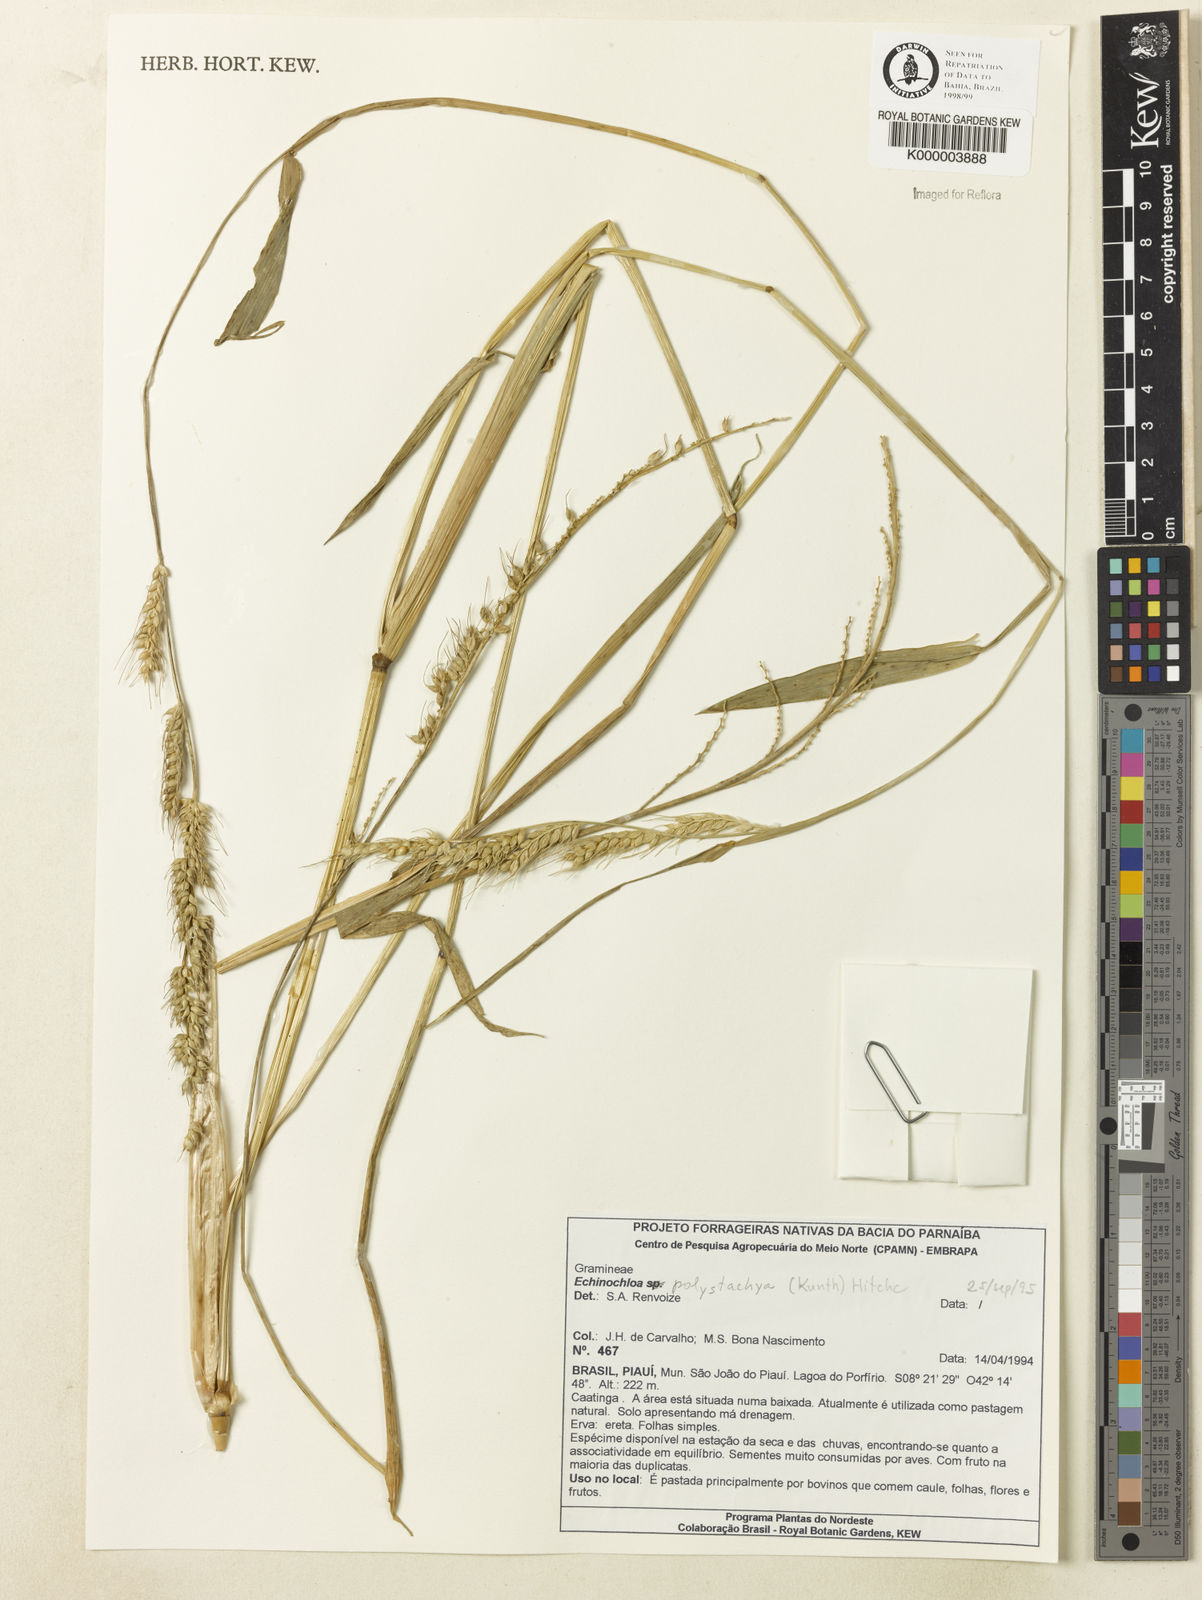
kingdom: Plantae
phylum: Tracheophyta
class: Liliopsida
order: Poales
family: Poaceae
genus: Echinochloa
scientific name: Echinochloa polystachya
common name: Creeping river grass
